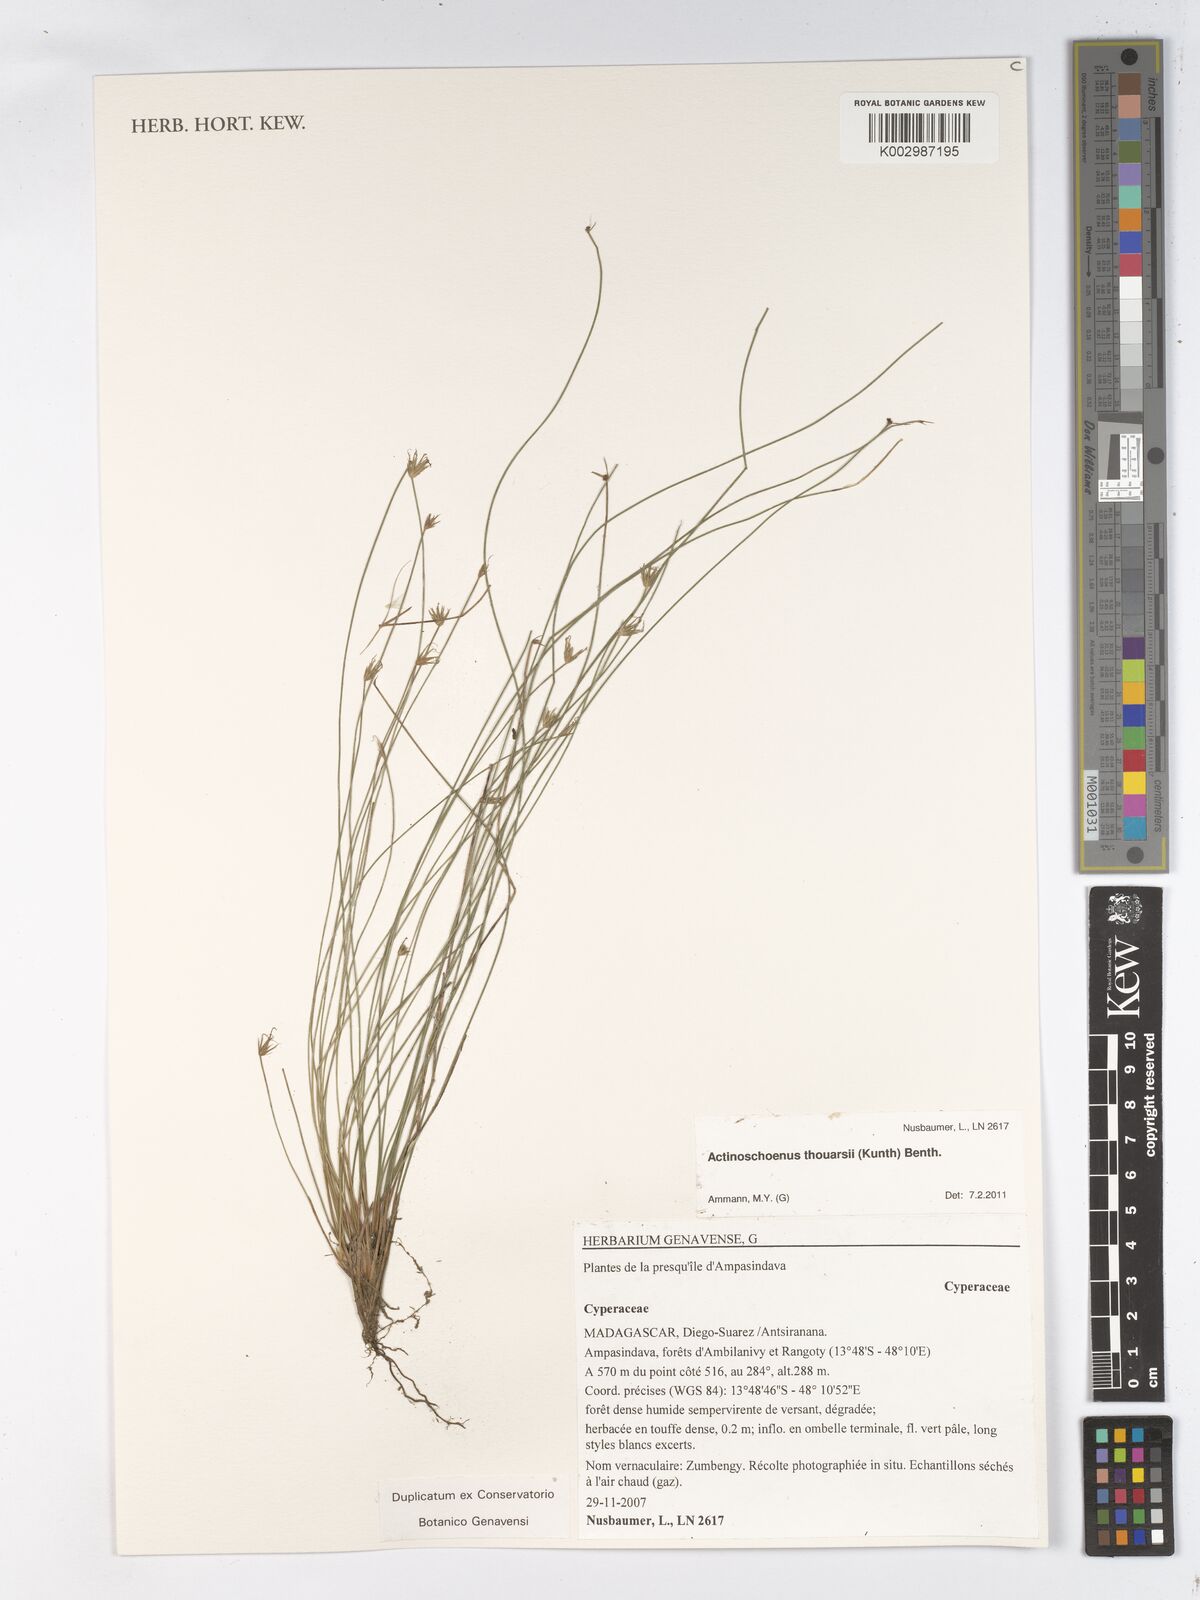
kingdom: Plantae
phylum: Tracheophyta
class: Liliopsida
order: Poales
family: Cyperaceae
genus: Actinoschoenus
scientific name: Actinoschoenus aphyllus
